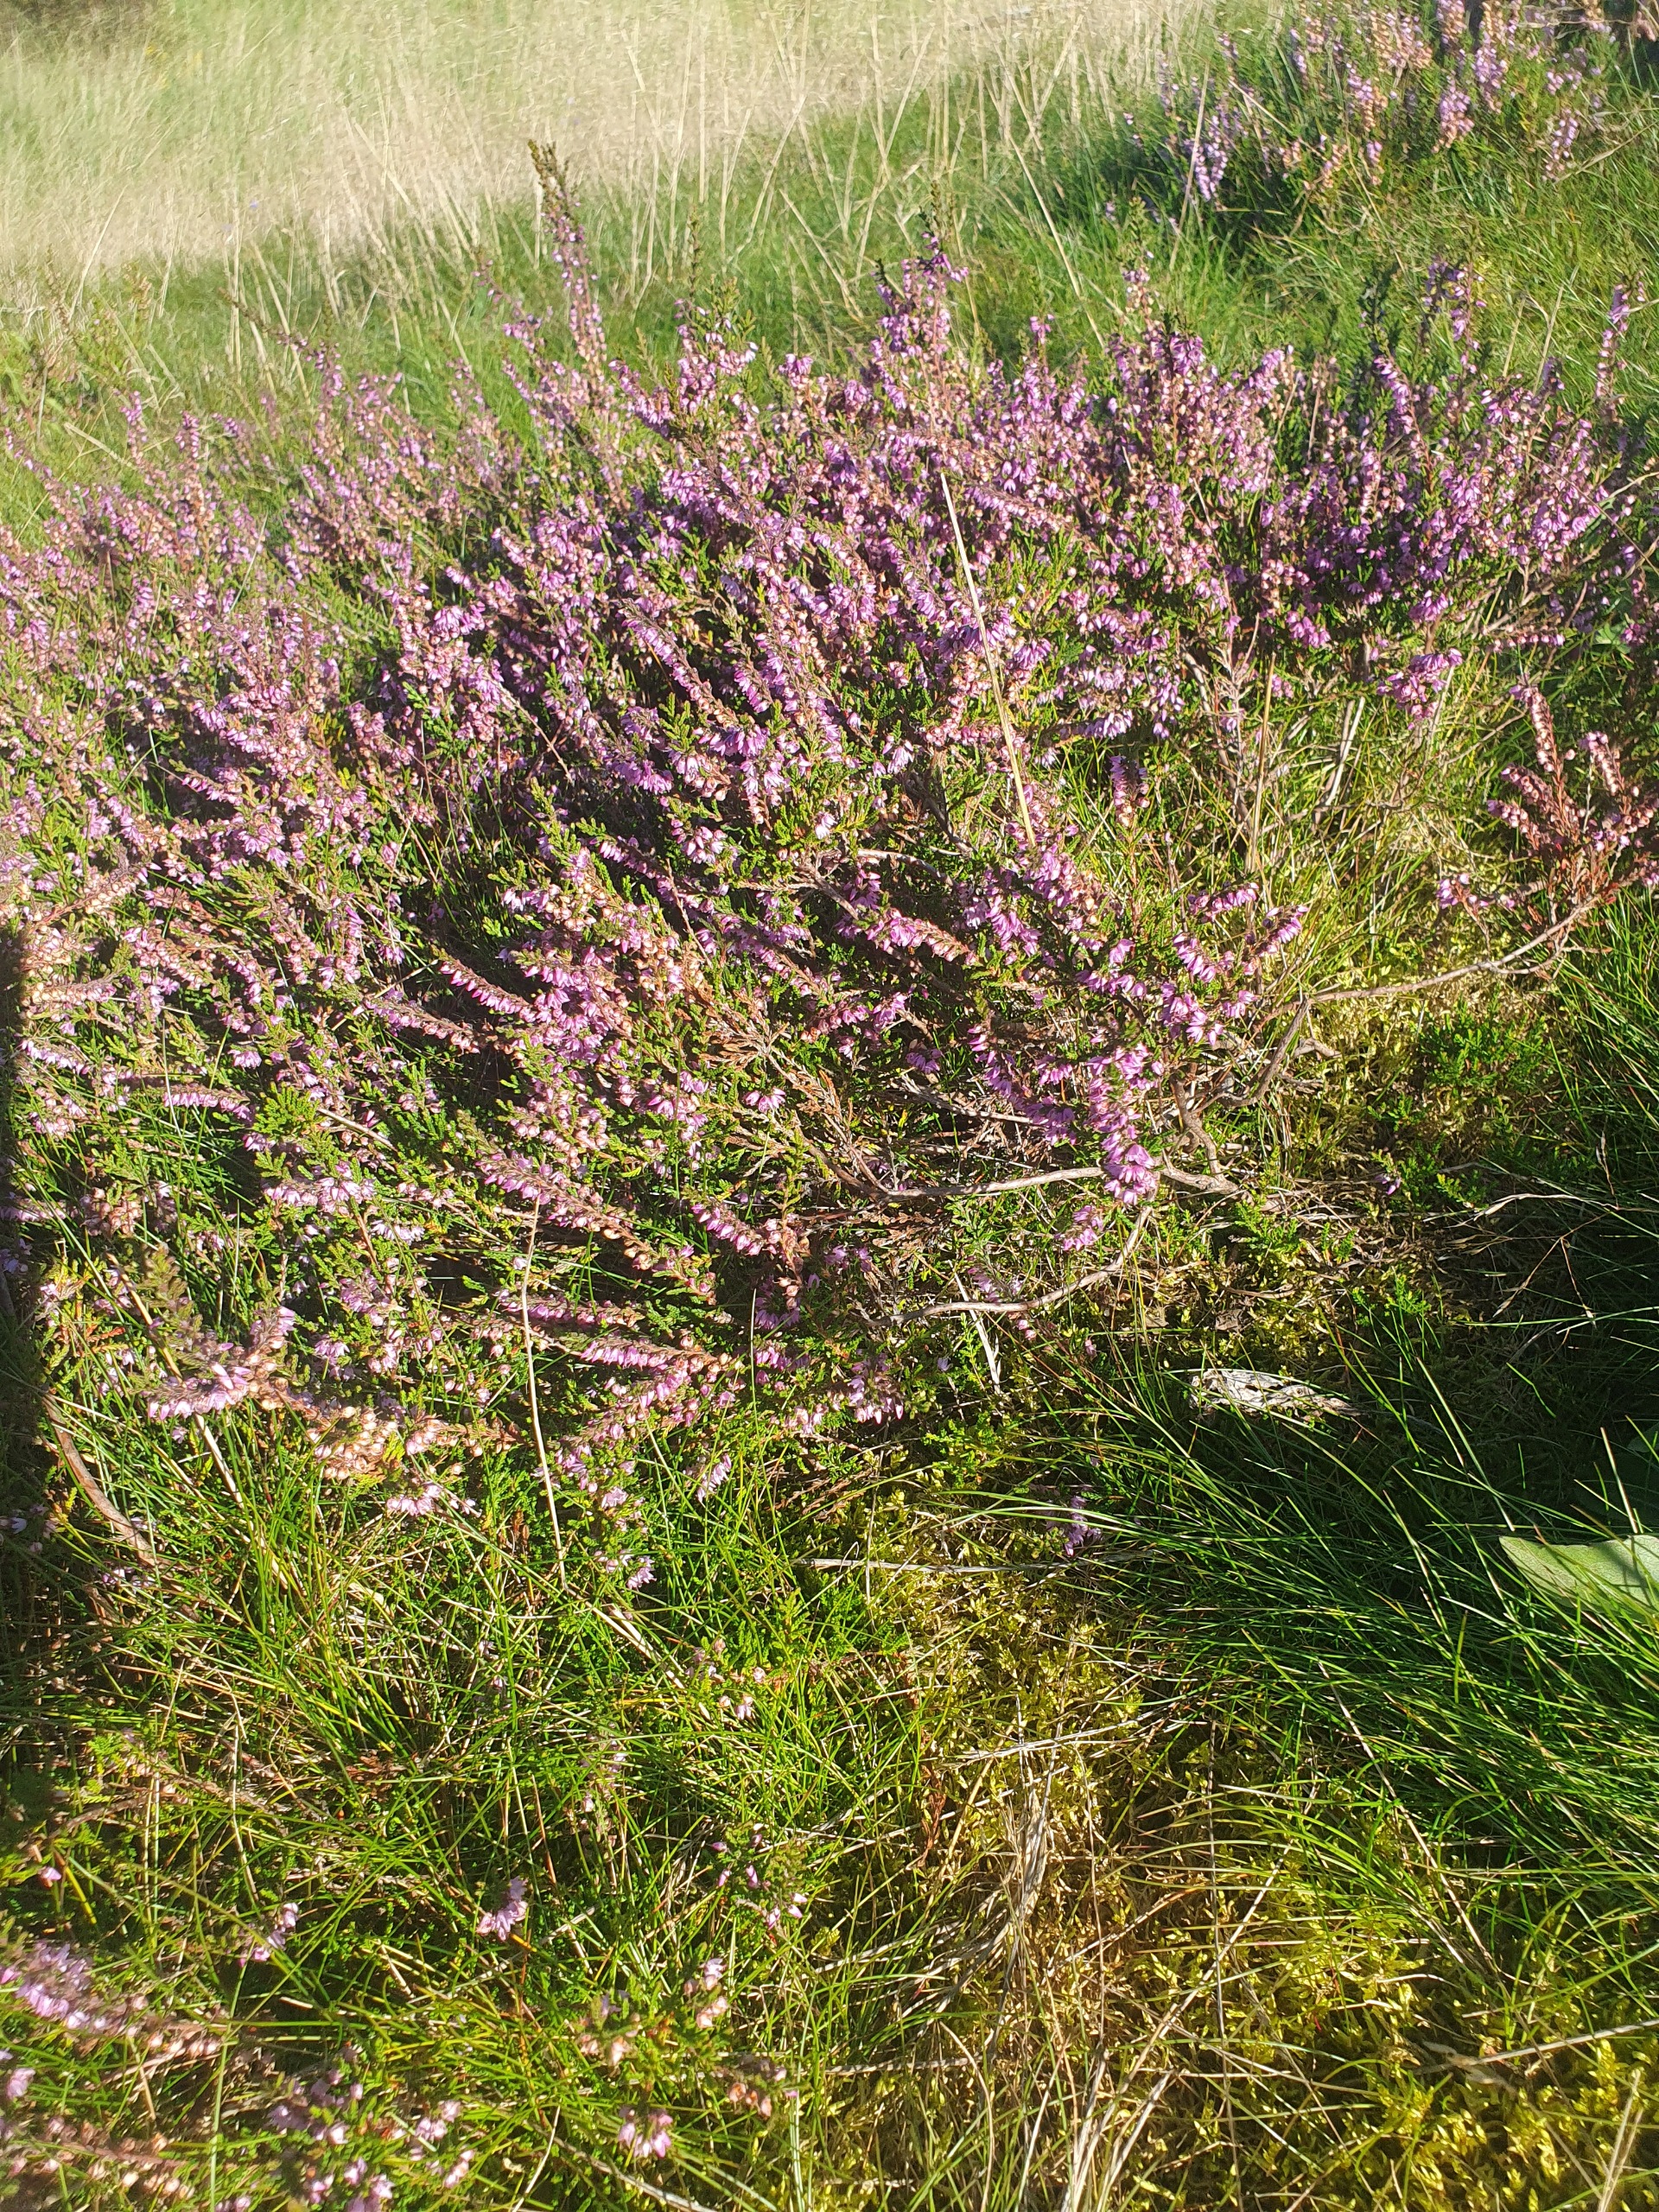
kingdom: Plantae
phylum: Tracheophyta
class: Magnoliopsida
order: Ericales
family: Ericaceae
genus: Calluna
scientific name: Calluna vulgaris
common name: Hedelyng
